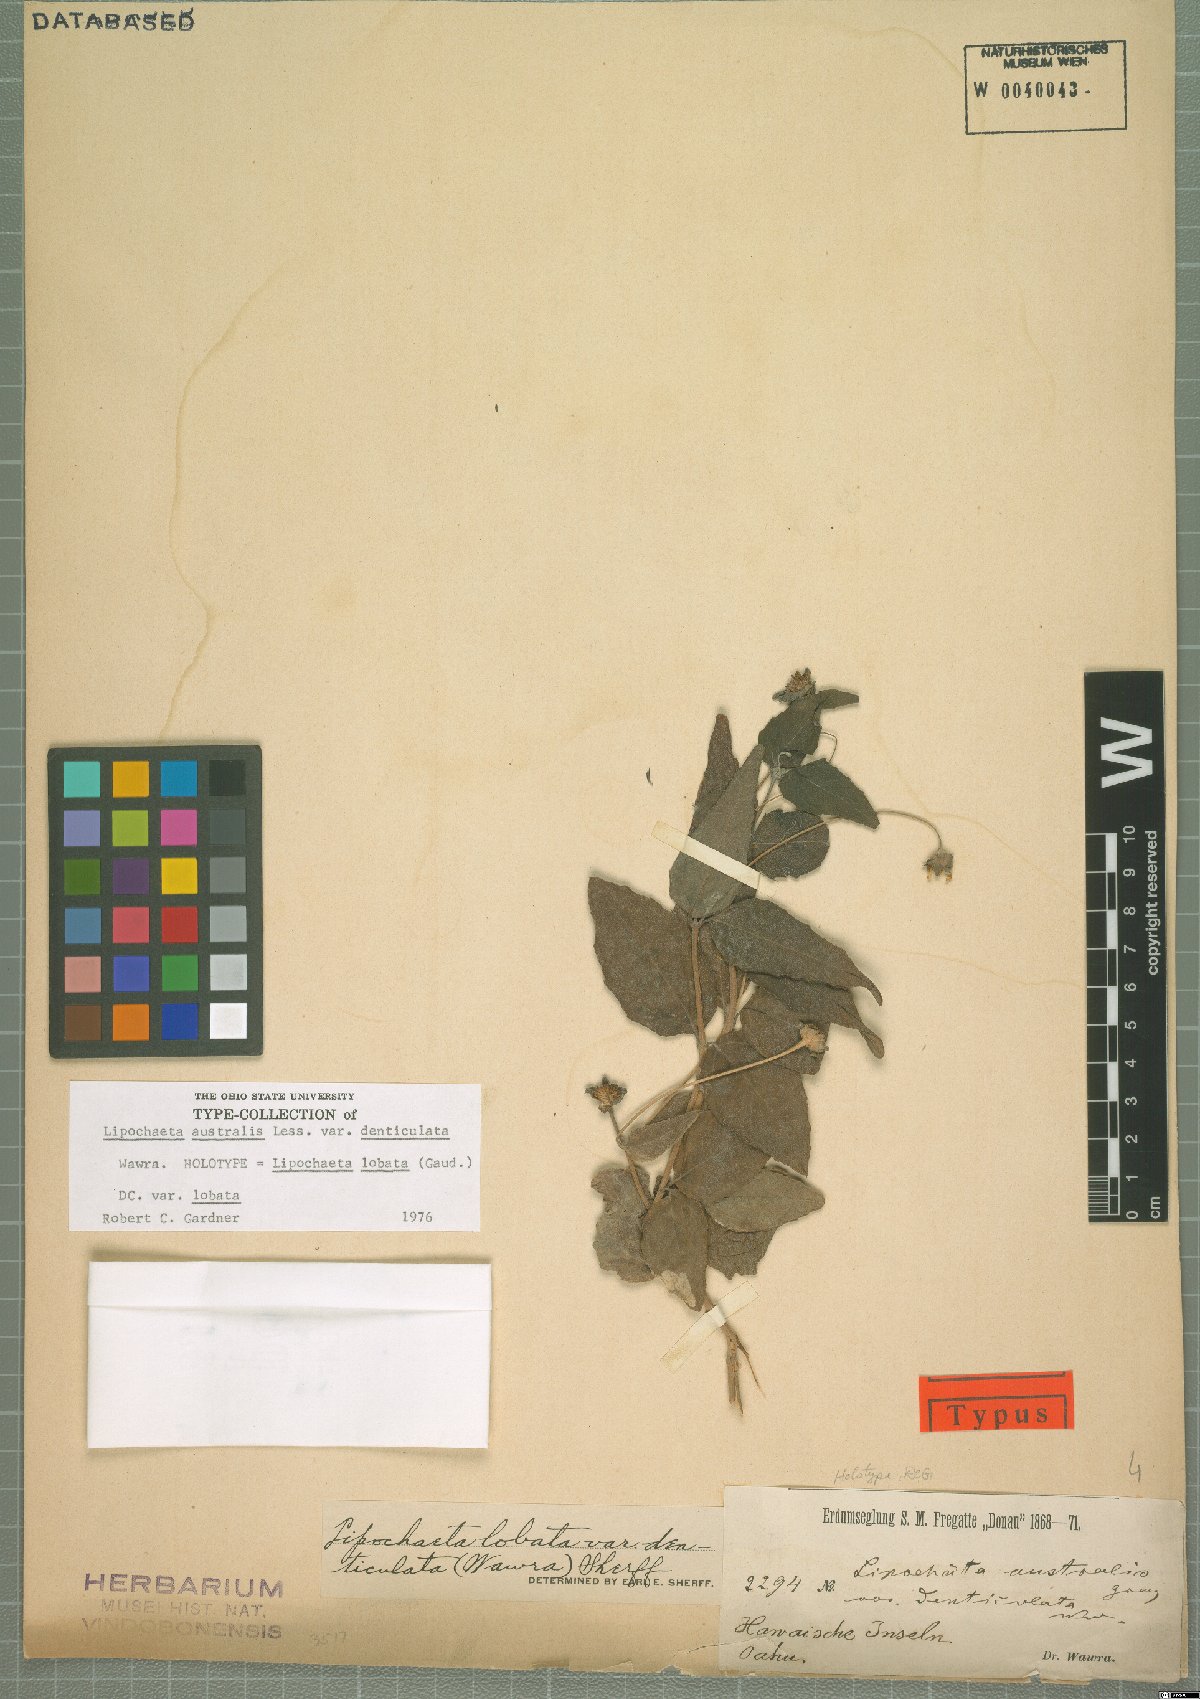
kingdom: Plantae
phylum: Tracheophyta
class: Magnoliopsida
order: Asterales
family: Asteraceae
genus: Lipochaeta
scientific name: Lipochaeta lobata
